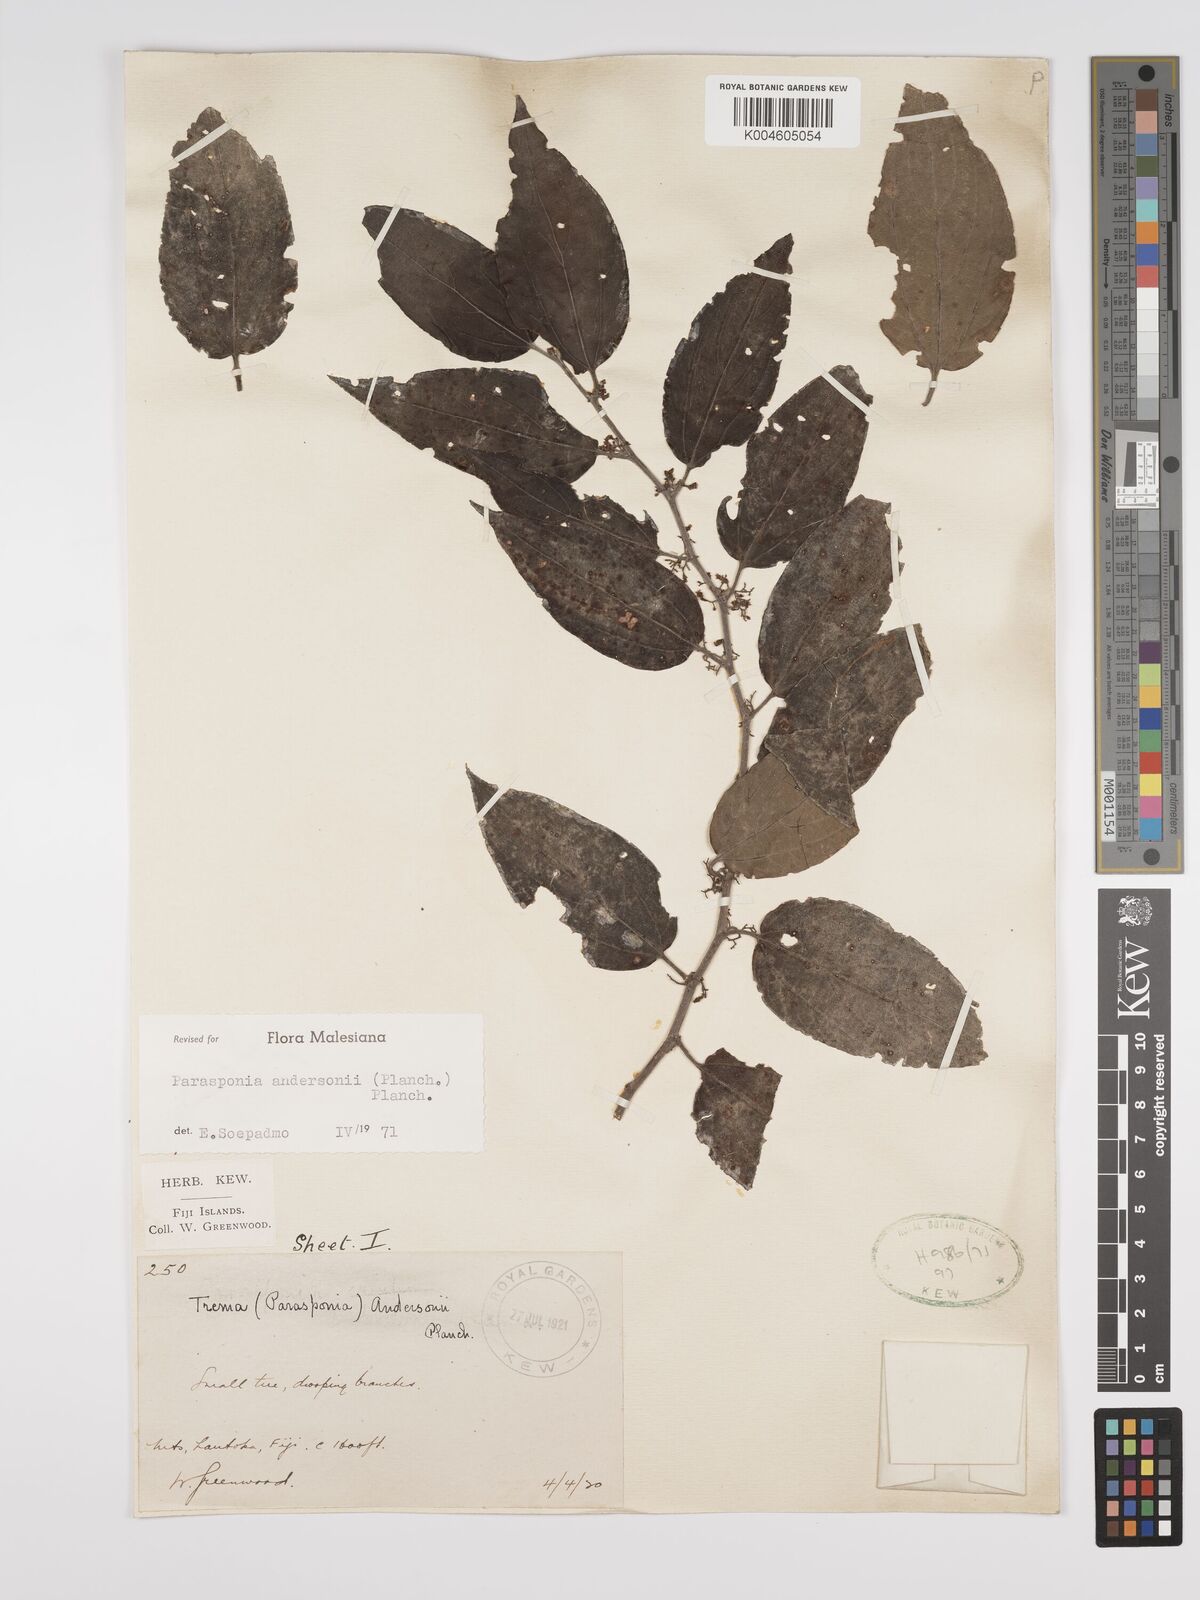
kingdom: Plantae
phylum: Tracheophyta
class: Magnoliopsida
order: Rosales
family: Cannabaceae
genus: Trema
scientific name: Trema andersonii
